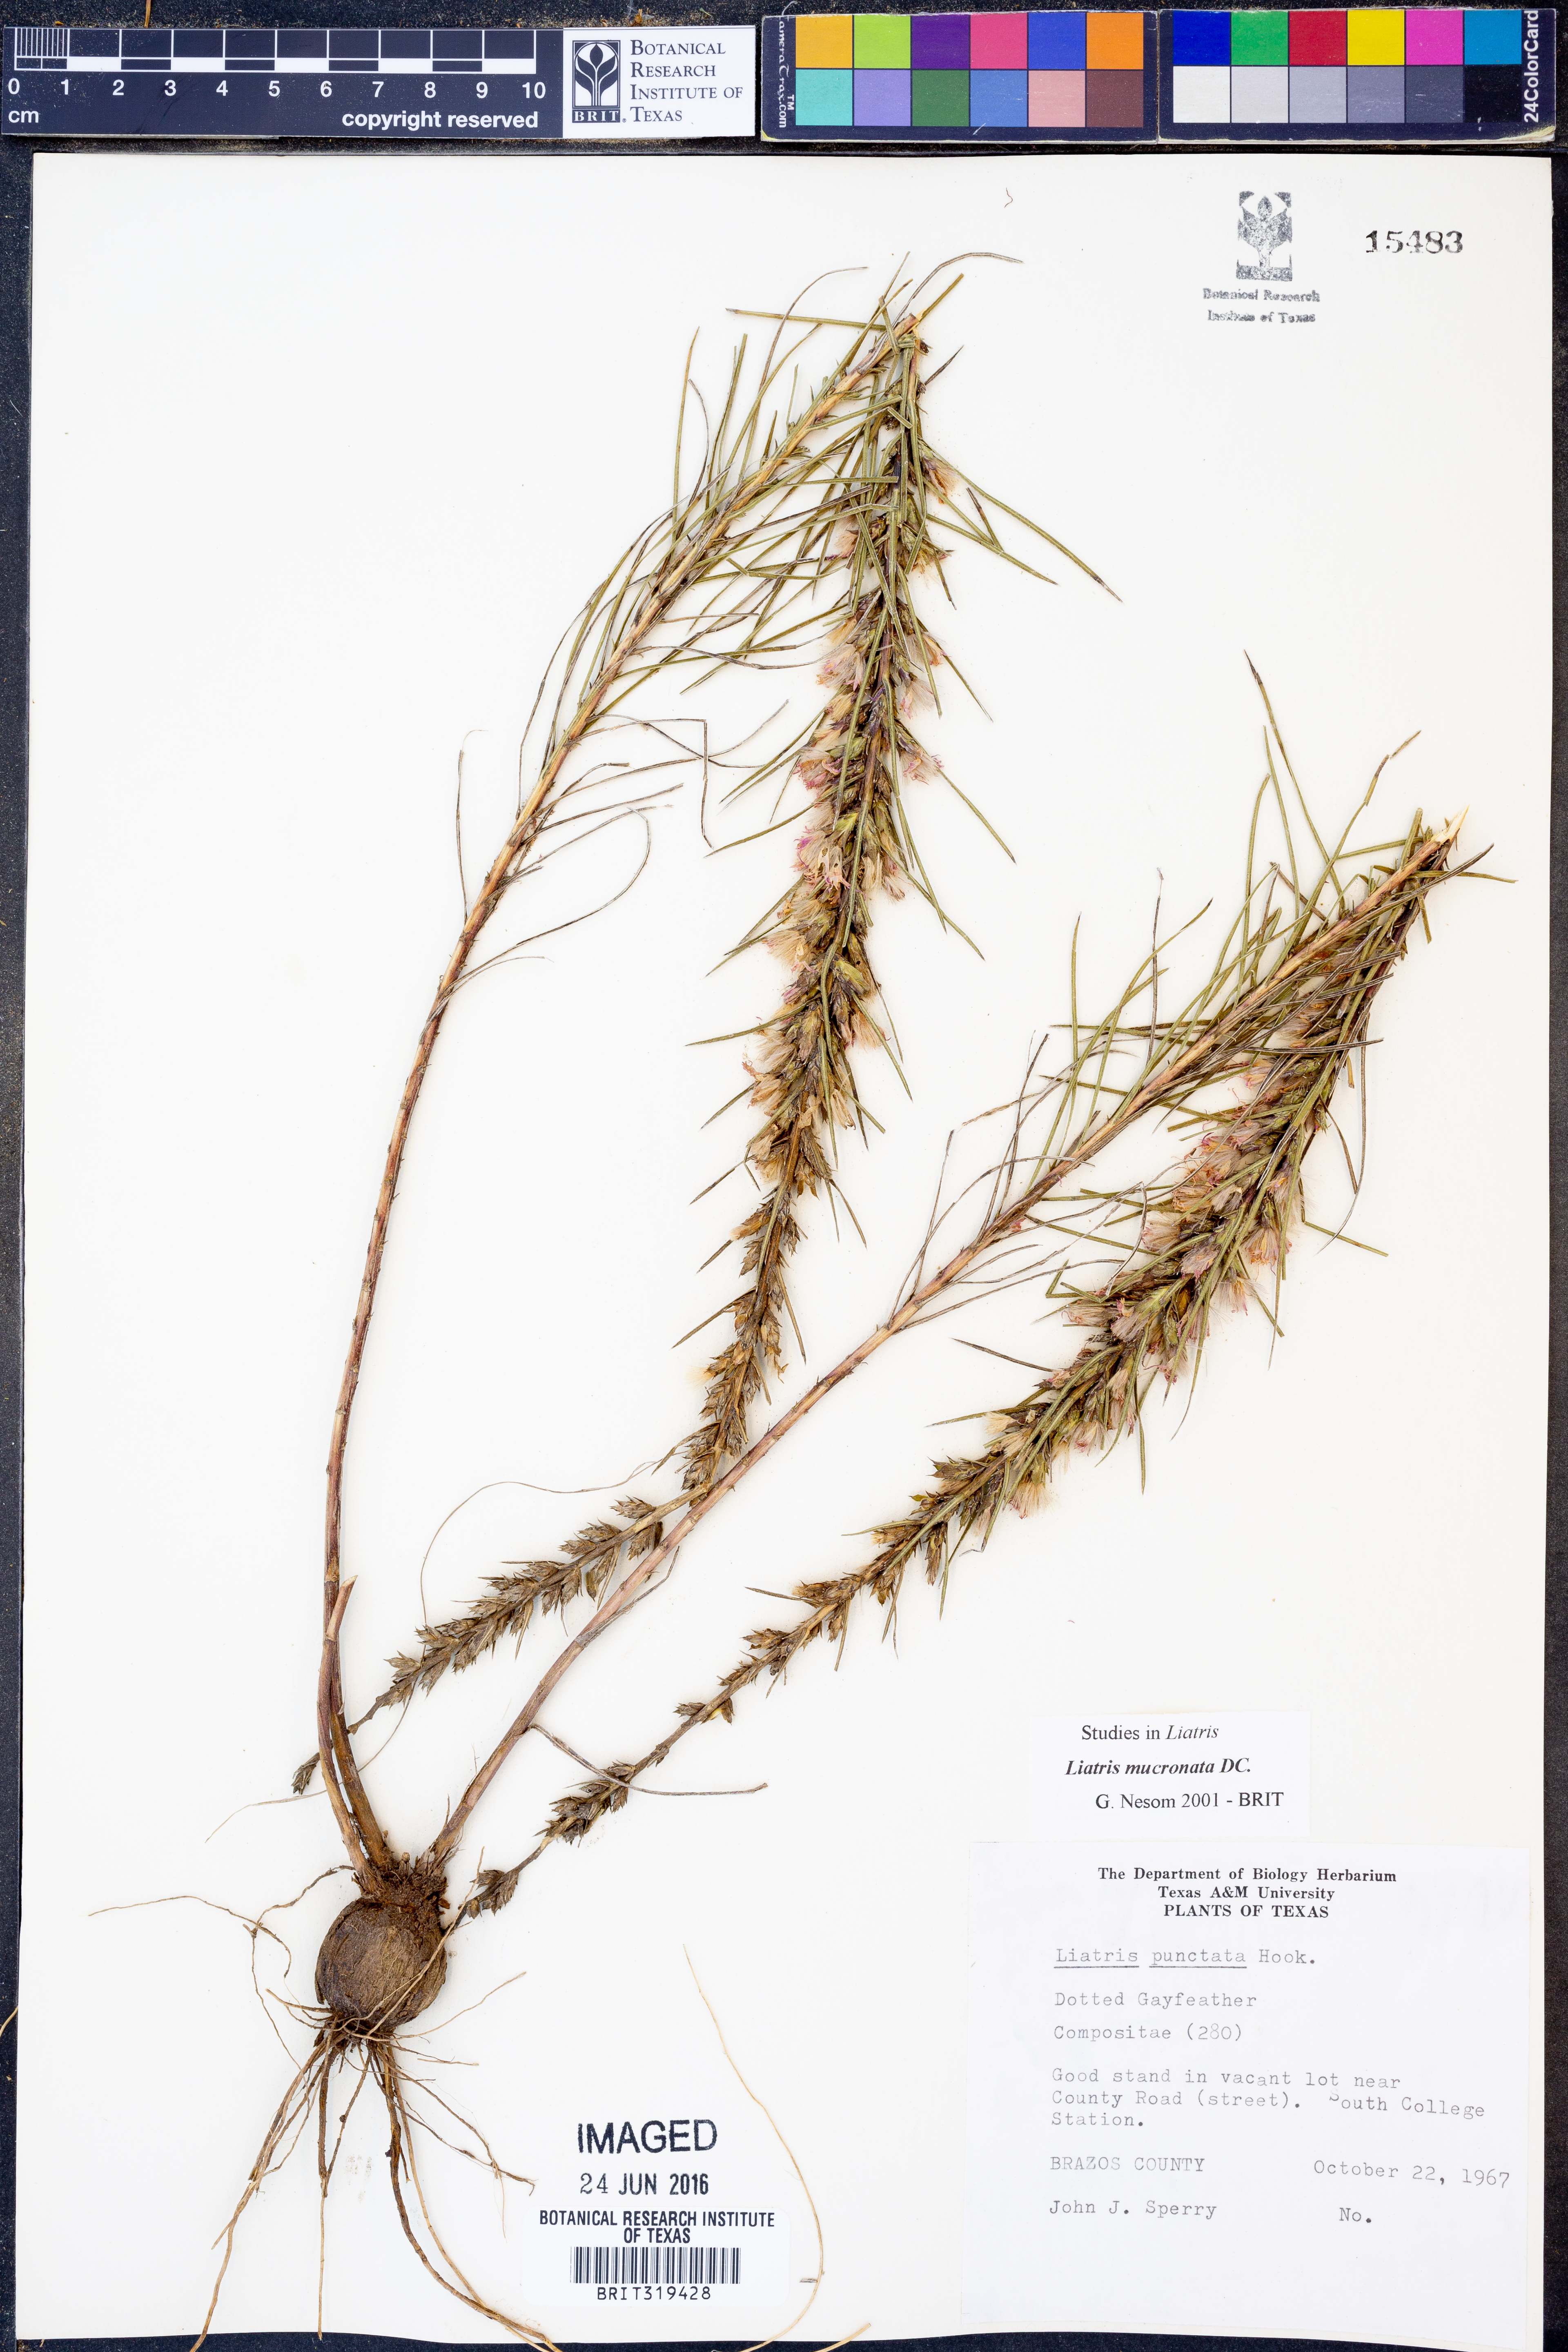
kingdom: Plantae
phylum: Tracheophyta
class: Magnoliopsida
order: Asterales
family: Asteraceae
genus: Liatris
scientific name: Liatris mucronata
